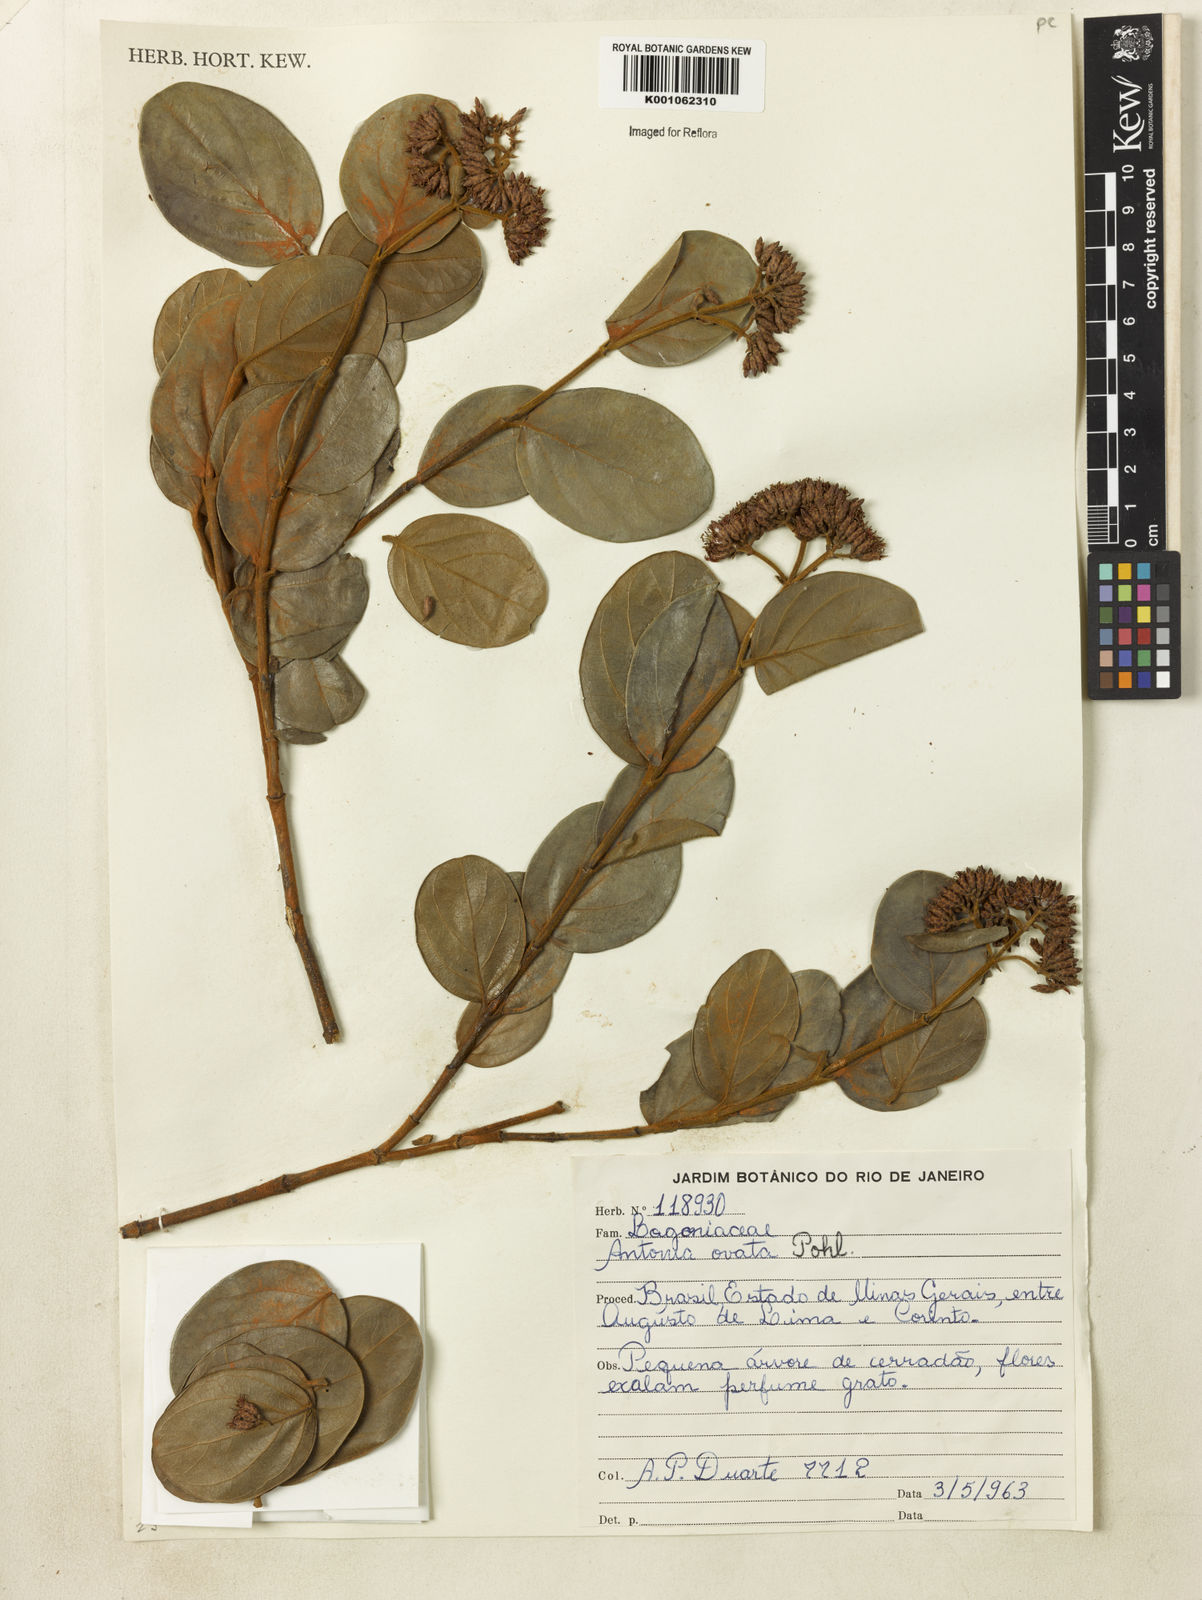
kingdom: Plantae
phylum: Tracheophyta
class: Magnoliopsida
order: Gentianales
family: Loganiaceae
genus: Antonia
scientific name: Antonia ovata
